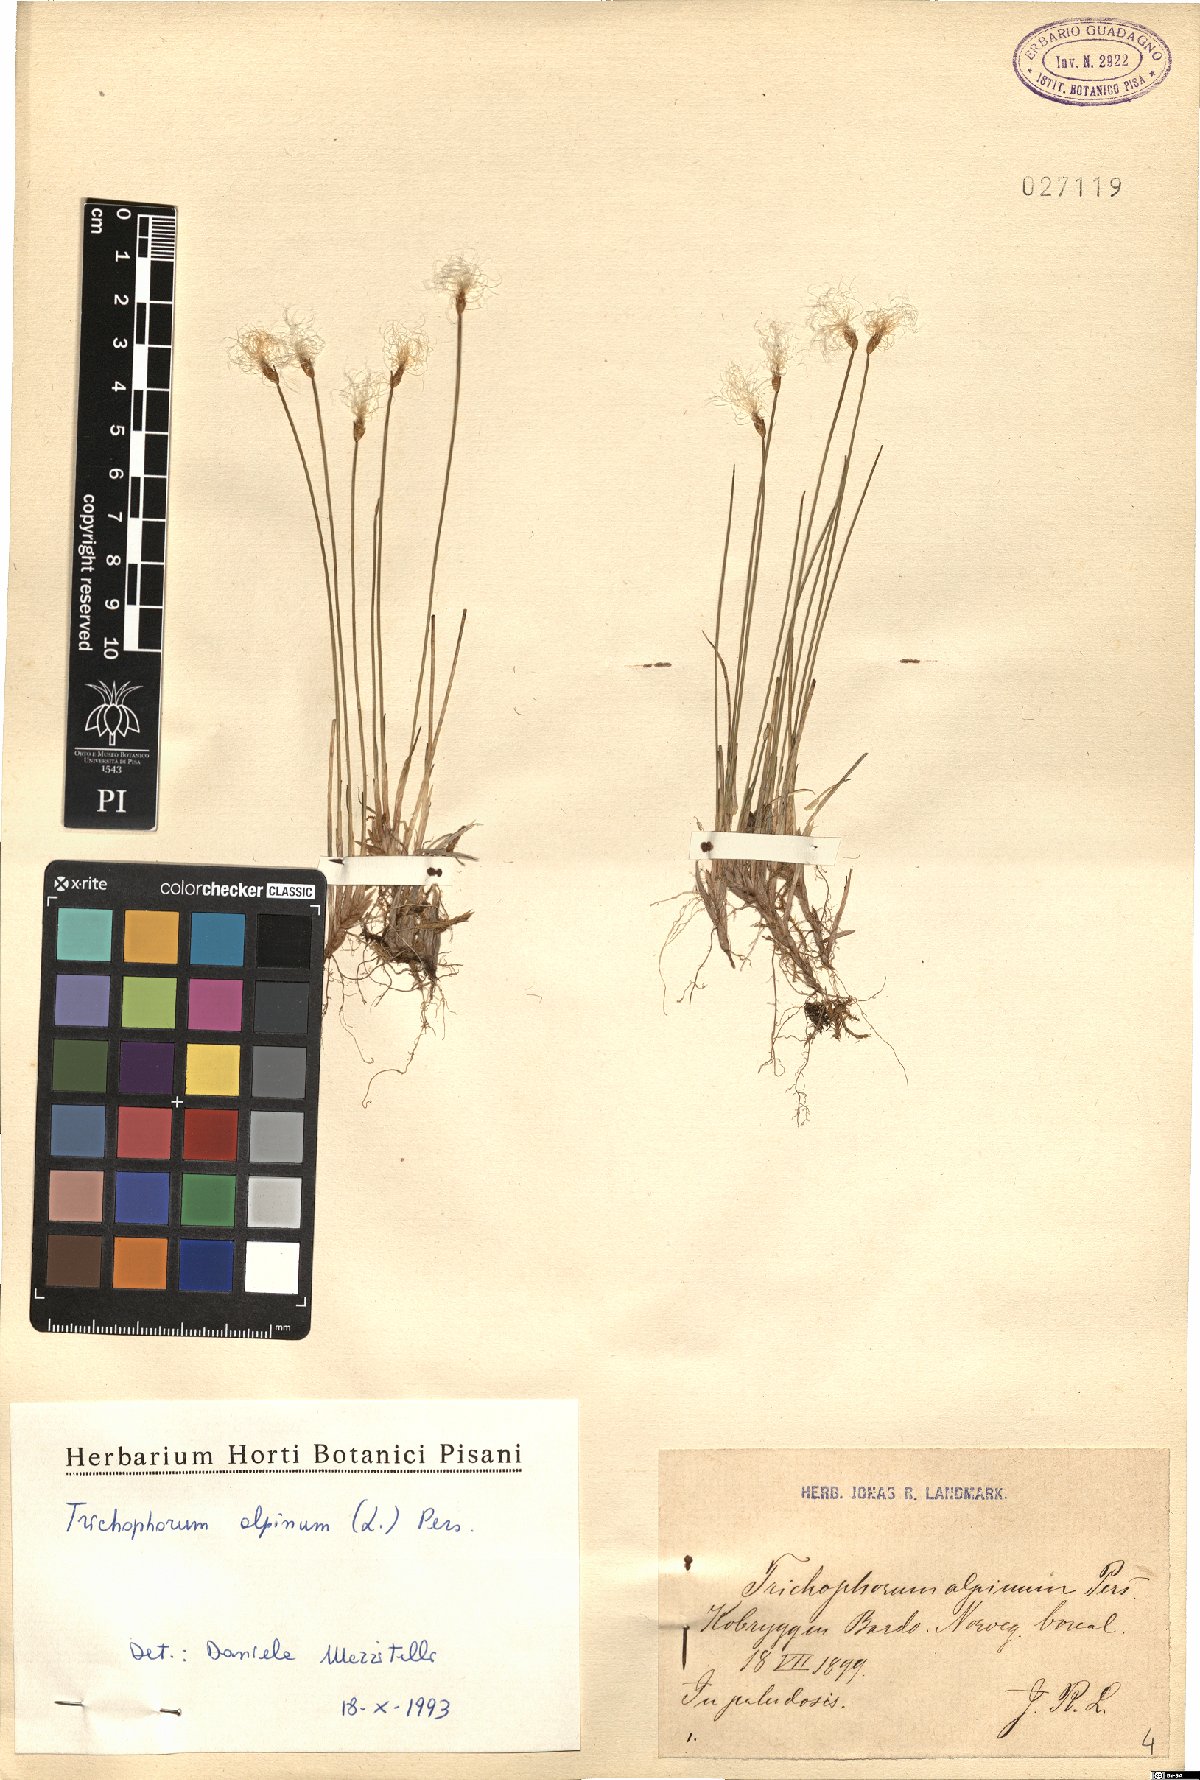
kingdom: Plantae
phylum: Tracheophyta
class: Liliopsida
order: Poales
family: Cyperaceae
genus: Trichophorum
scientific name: Trichophorum alpinum
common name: Alpine bulrush
